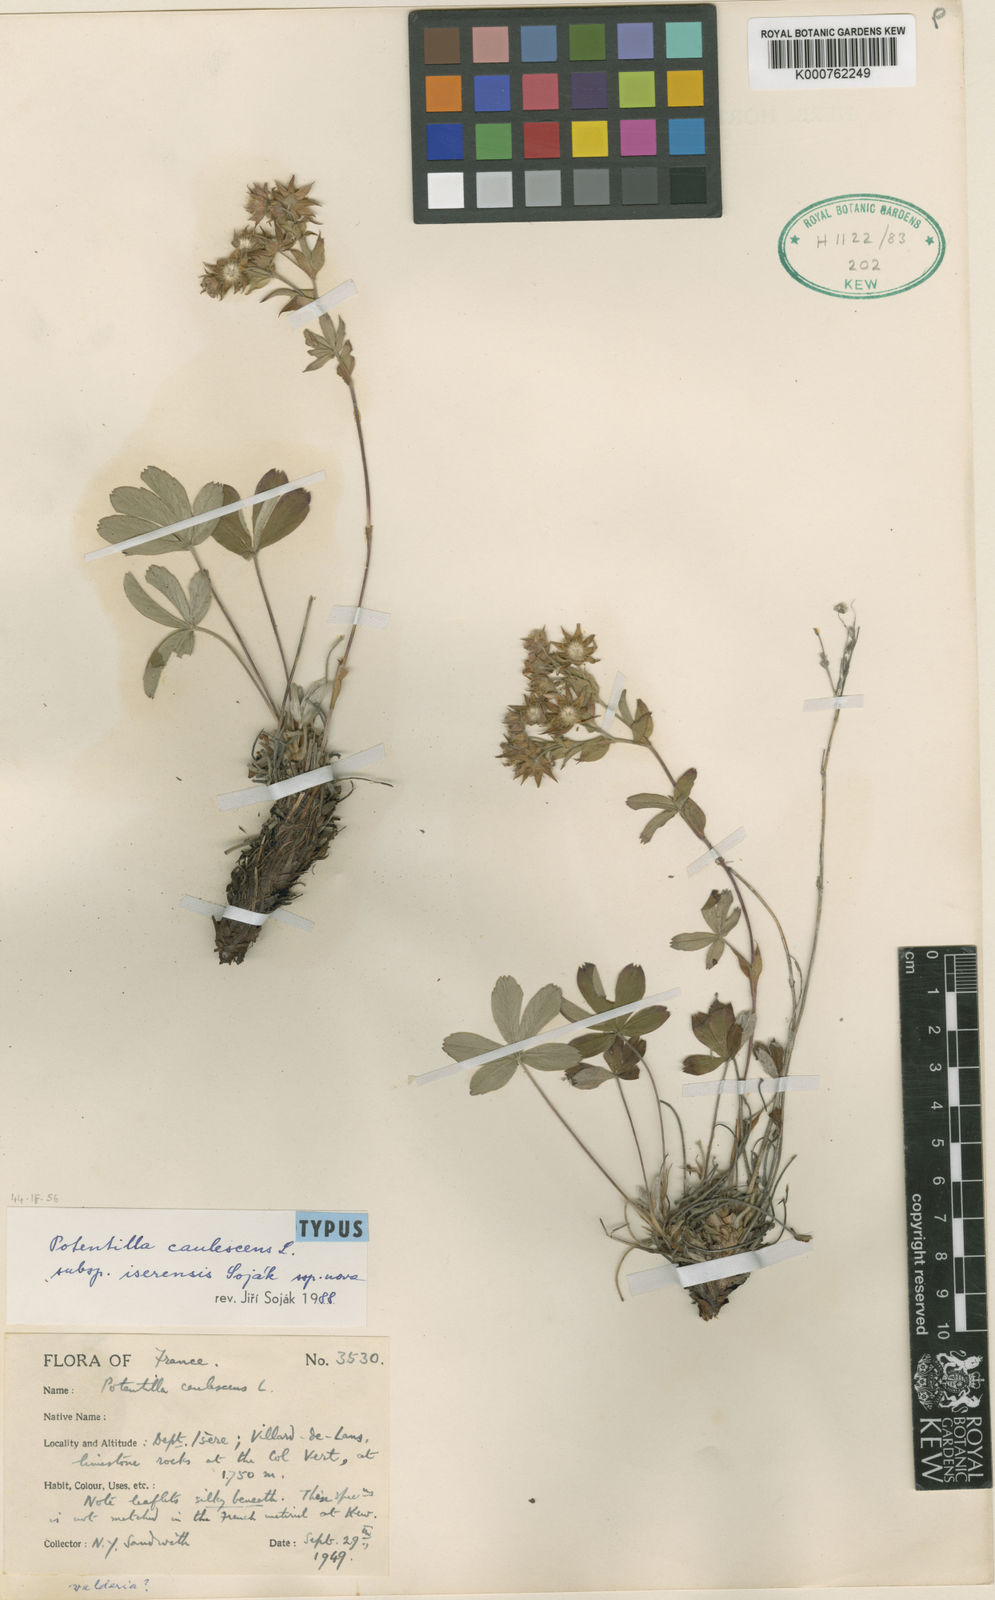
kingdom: Plantae
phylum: Tracheophyta
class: Magnoliopsida
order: Rosales
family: Rosaceae
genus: Potentilla
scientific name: Potentilla caulescens
